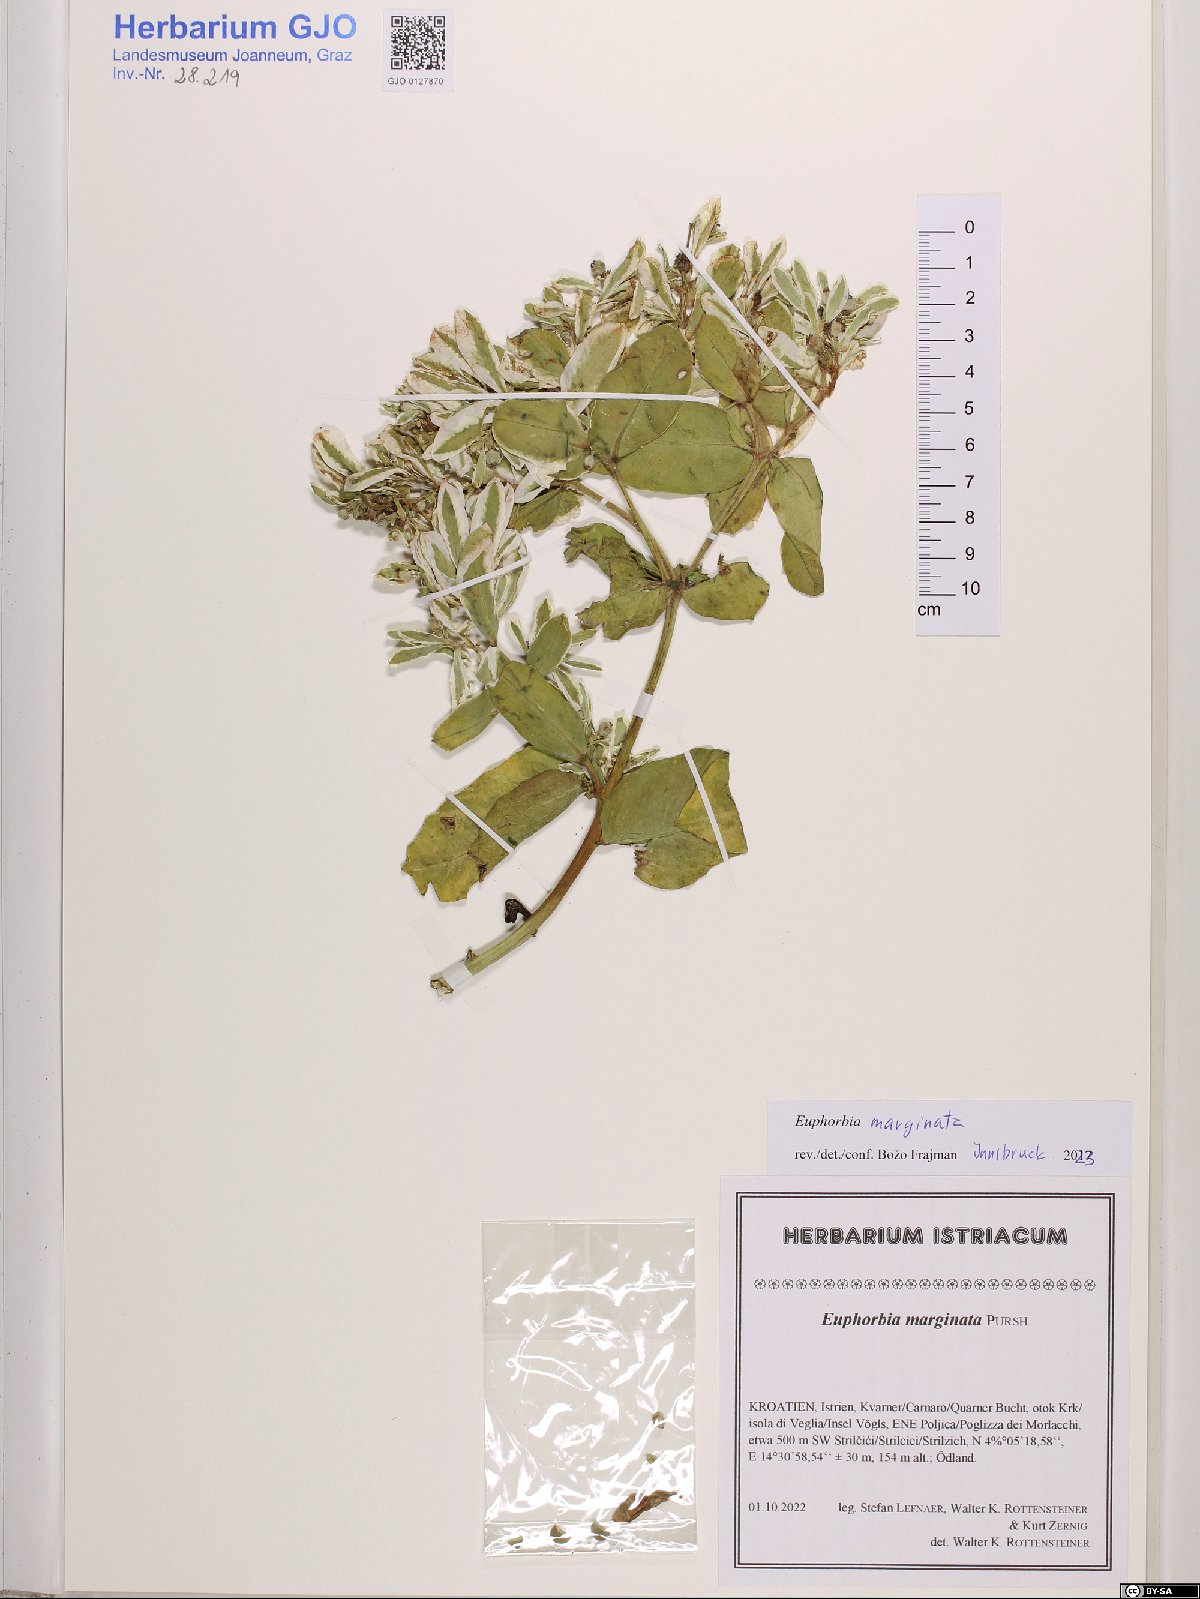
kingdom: Plantae
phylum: Tracheophyta
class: Magnoliopsida
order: Malpighiales
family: Euphorbiaceae
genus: Euphorbia
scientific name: Euphorbia marginata
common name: Ghostweed
